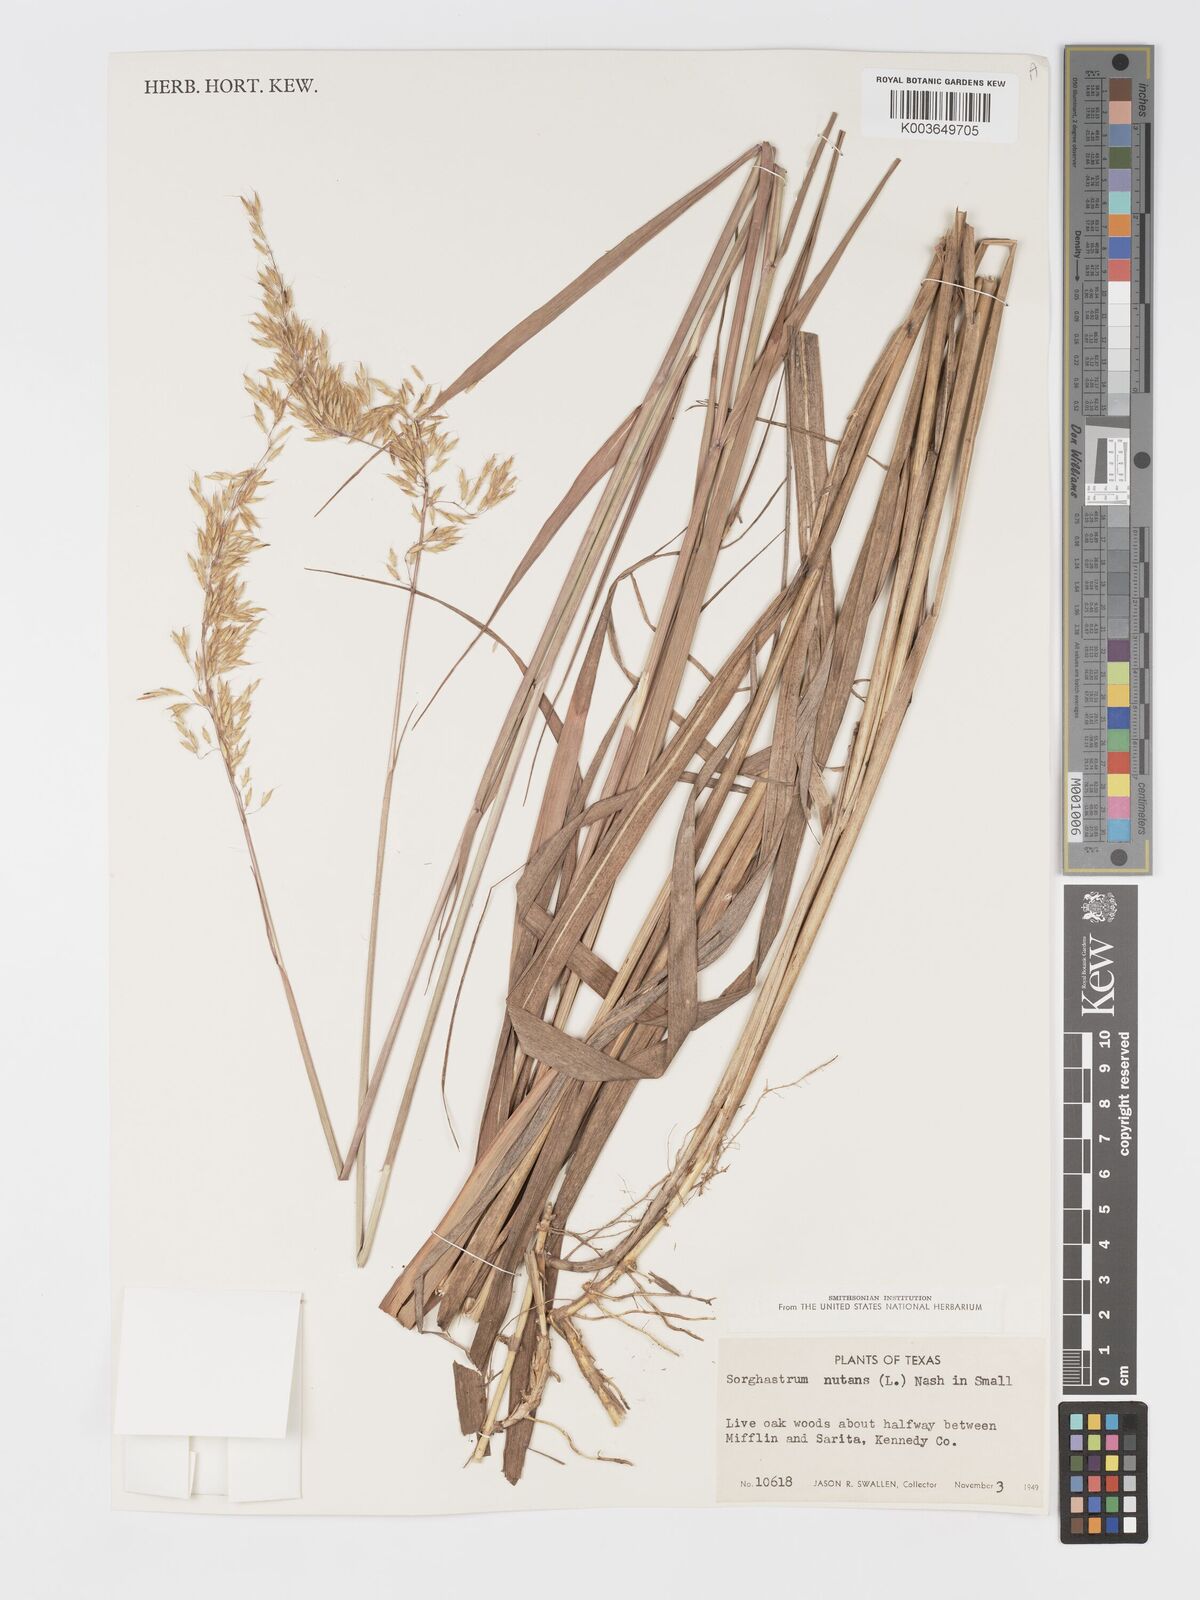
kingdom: Plantae
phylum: Tracheophyta
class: Liliopsida
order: Poales
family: Poaceae
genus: Sorghastrum
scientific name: Sorghastrum nutans
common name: Indian grass
